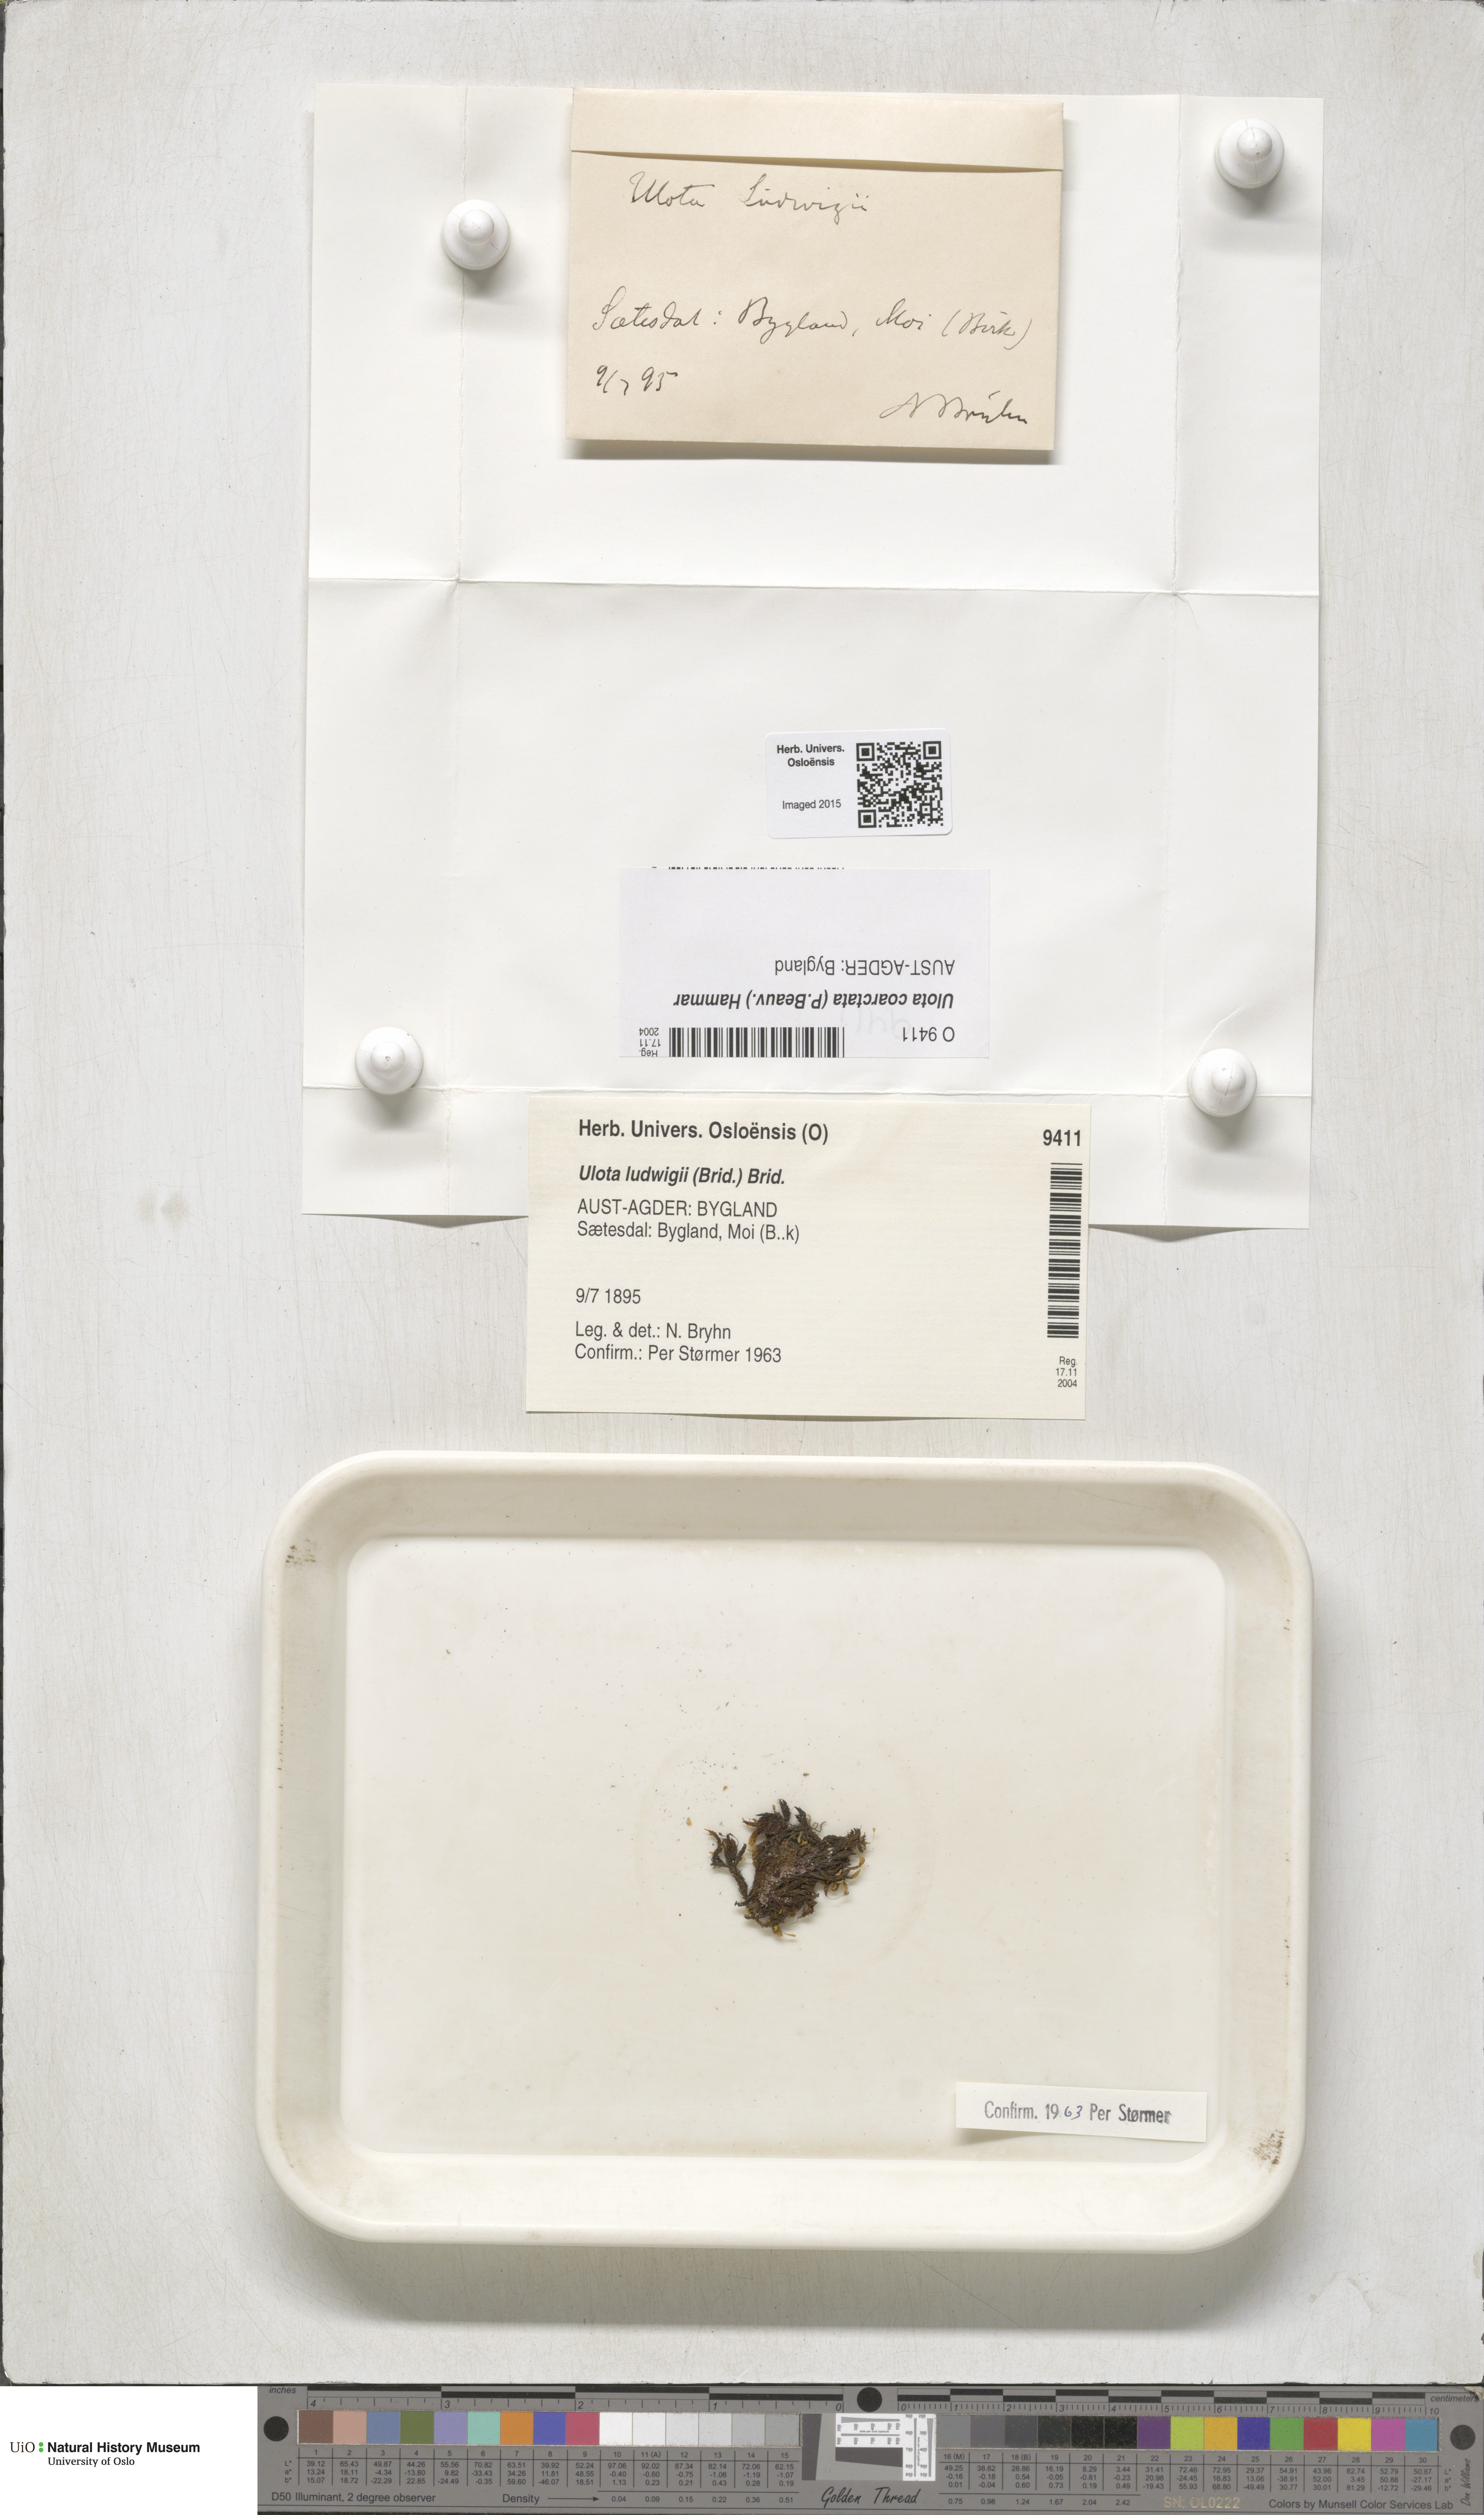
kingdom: Plantae
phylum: Bryophyta
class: Bryopsida
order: Orthotrichales
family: Orthotrichaceae
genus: Ulota
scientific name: Ulota coarctata
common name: Club pincushion moss
